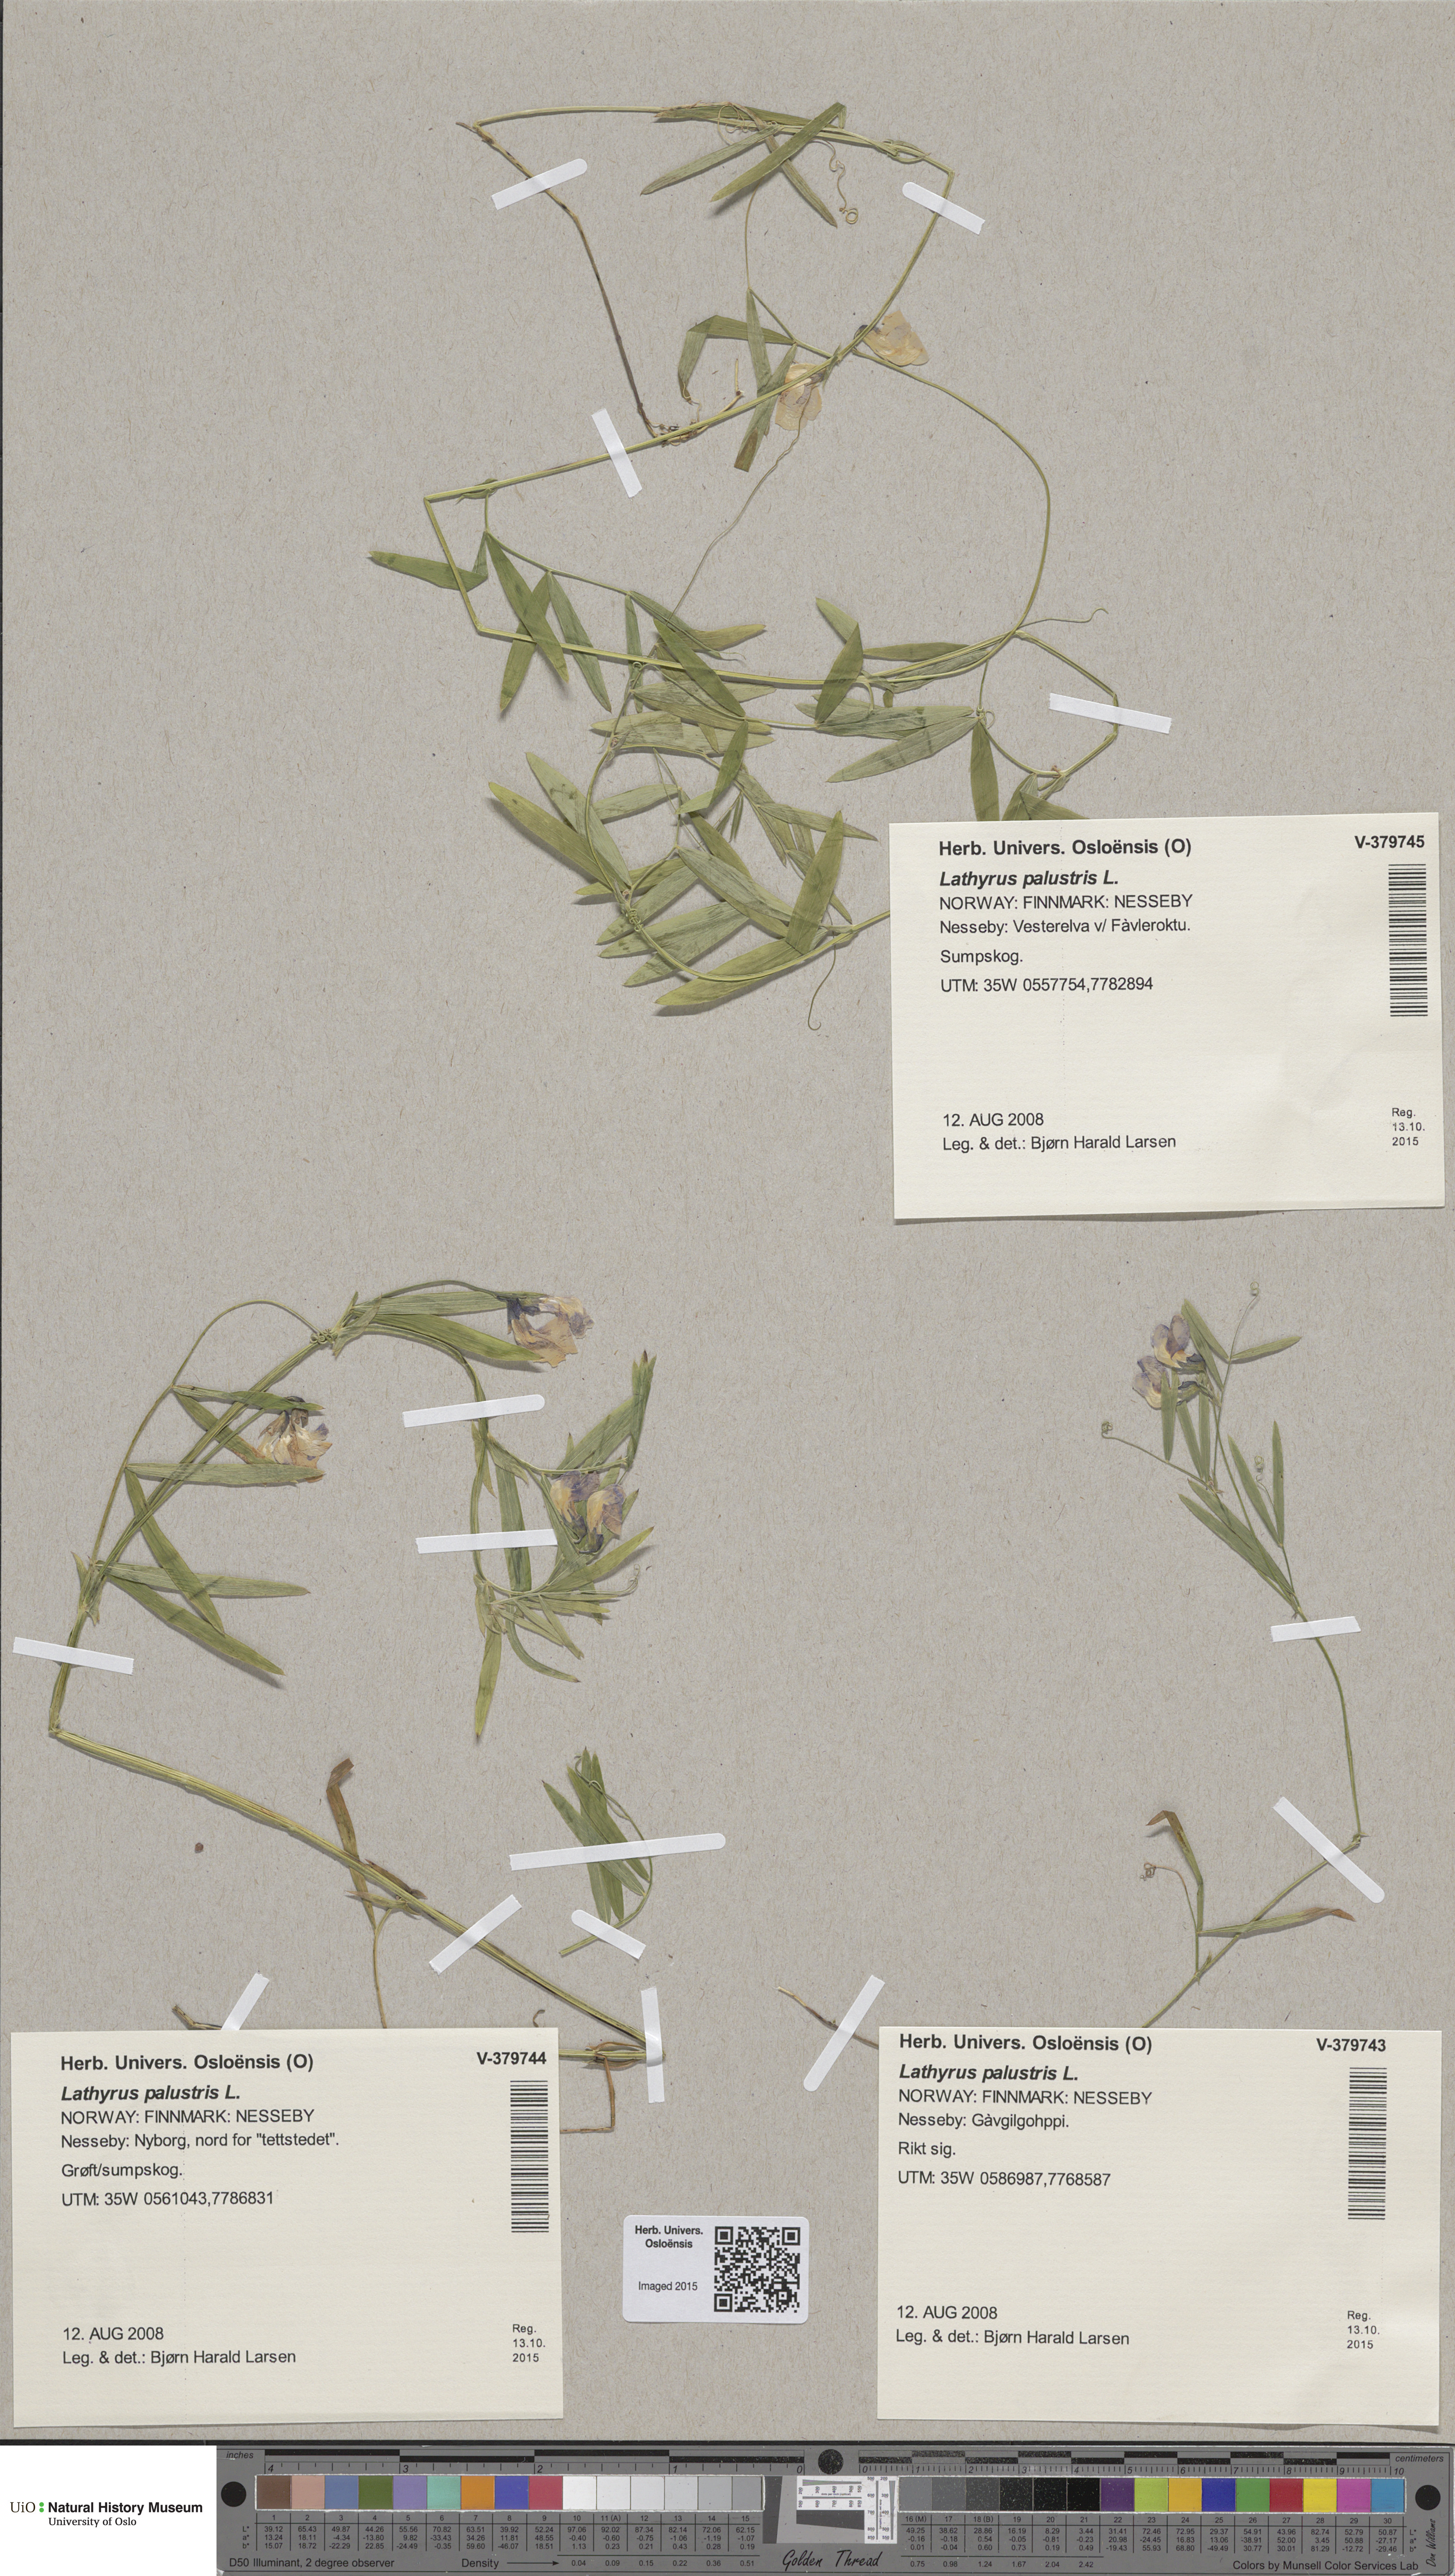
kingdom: Plantae
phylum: Tracheophyta
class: Magnoliopsida
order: Fabales
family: Fabaceae
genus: Lathyrus
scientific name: Lathyrus palustris
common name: Marsh pea
